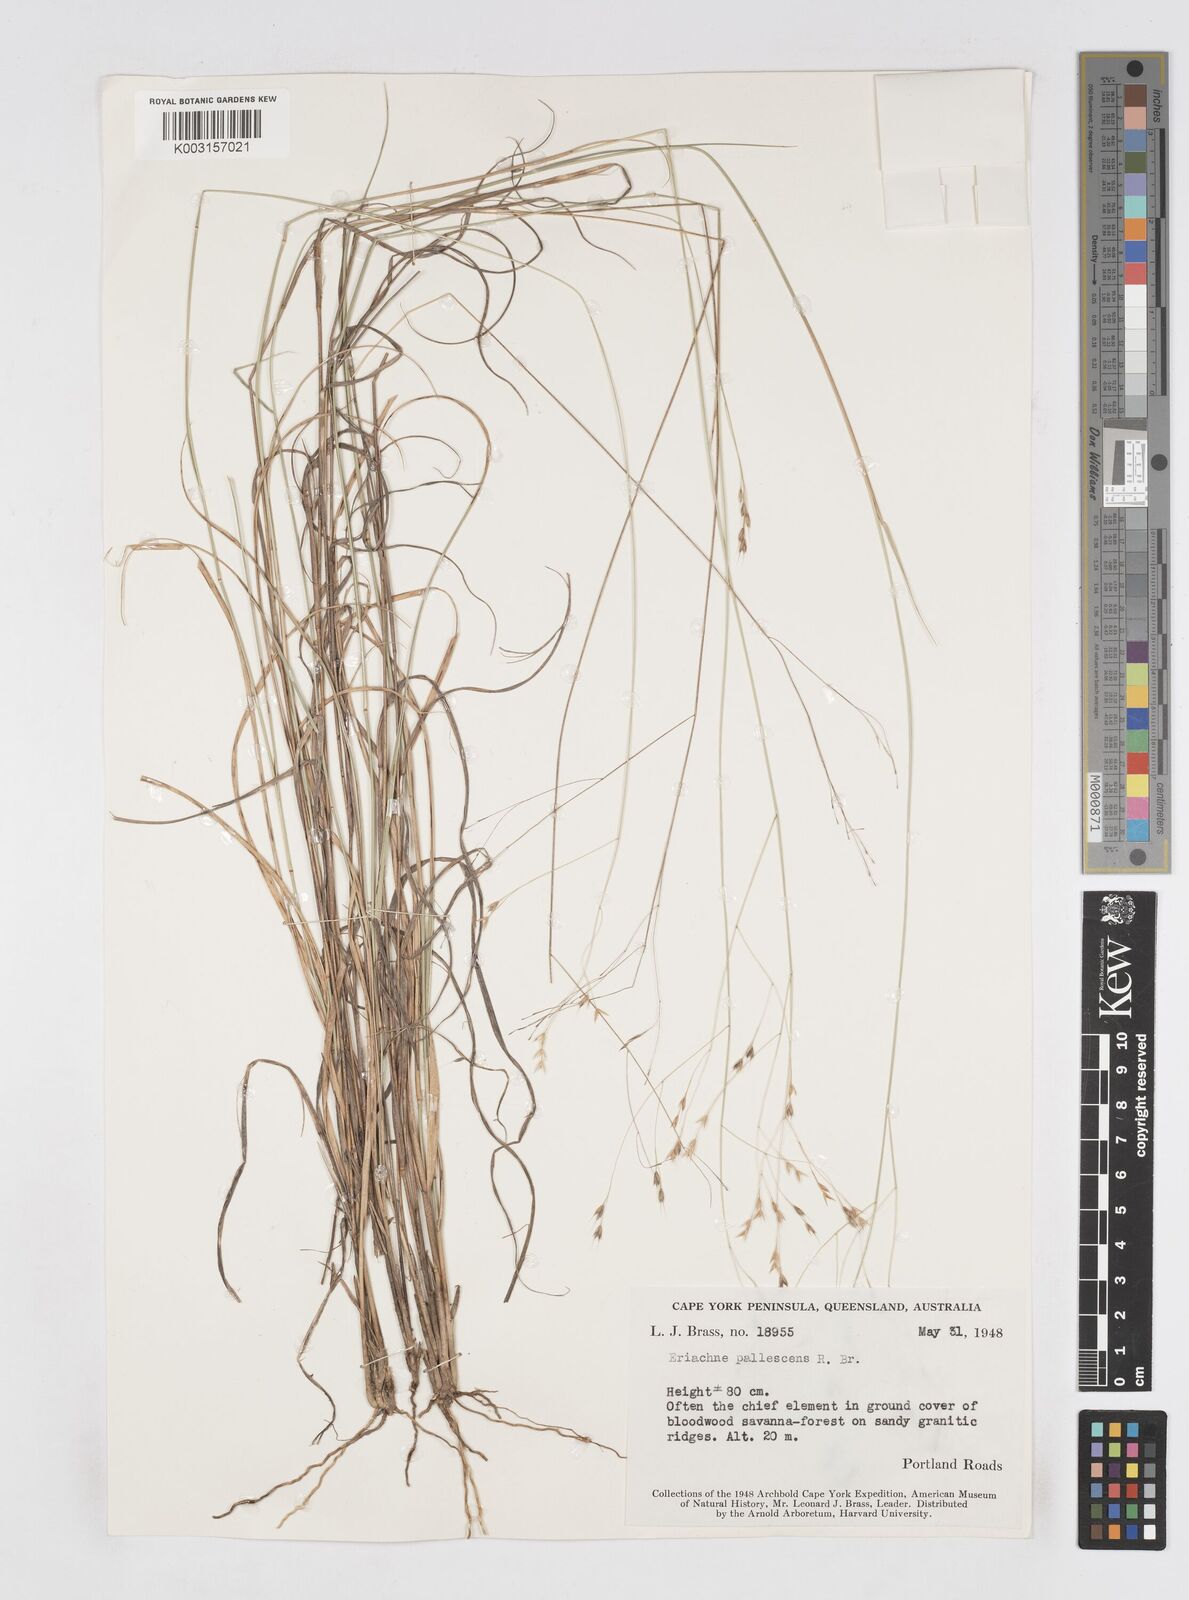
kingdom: Plantae
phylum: Tracheophyta
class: Liliopsida
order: Poales
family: Poaceae
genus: Eriachne
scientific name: Eriachne pallescens
